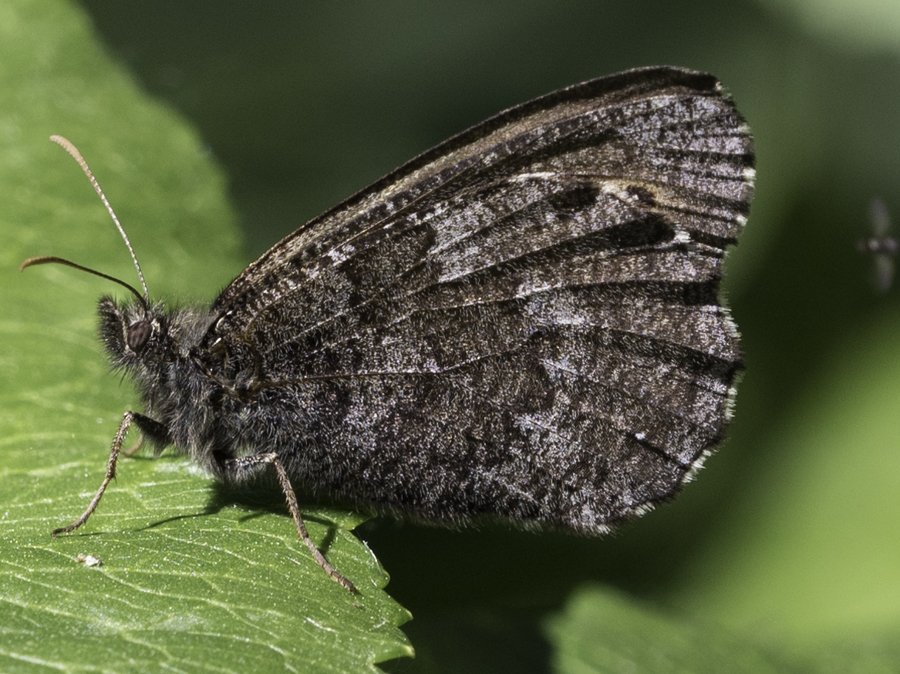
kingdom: Animalia
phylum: Arthropoda
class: Insecta
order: Lepidoptera
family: Nymphalidae
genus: Oeneis
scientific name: Oeneis jutta
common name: Jutta Arctic
